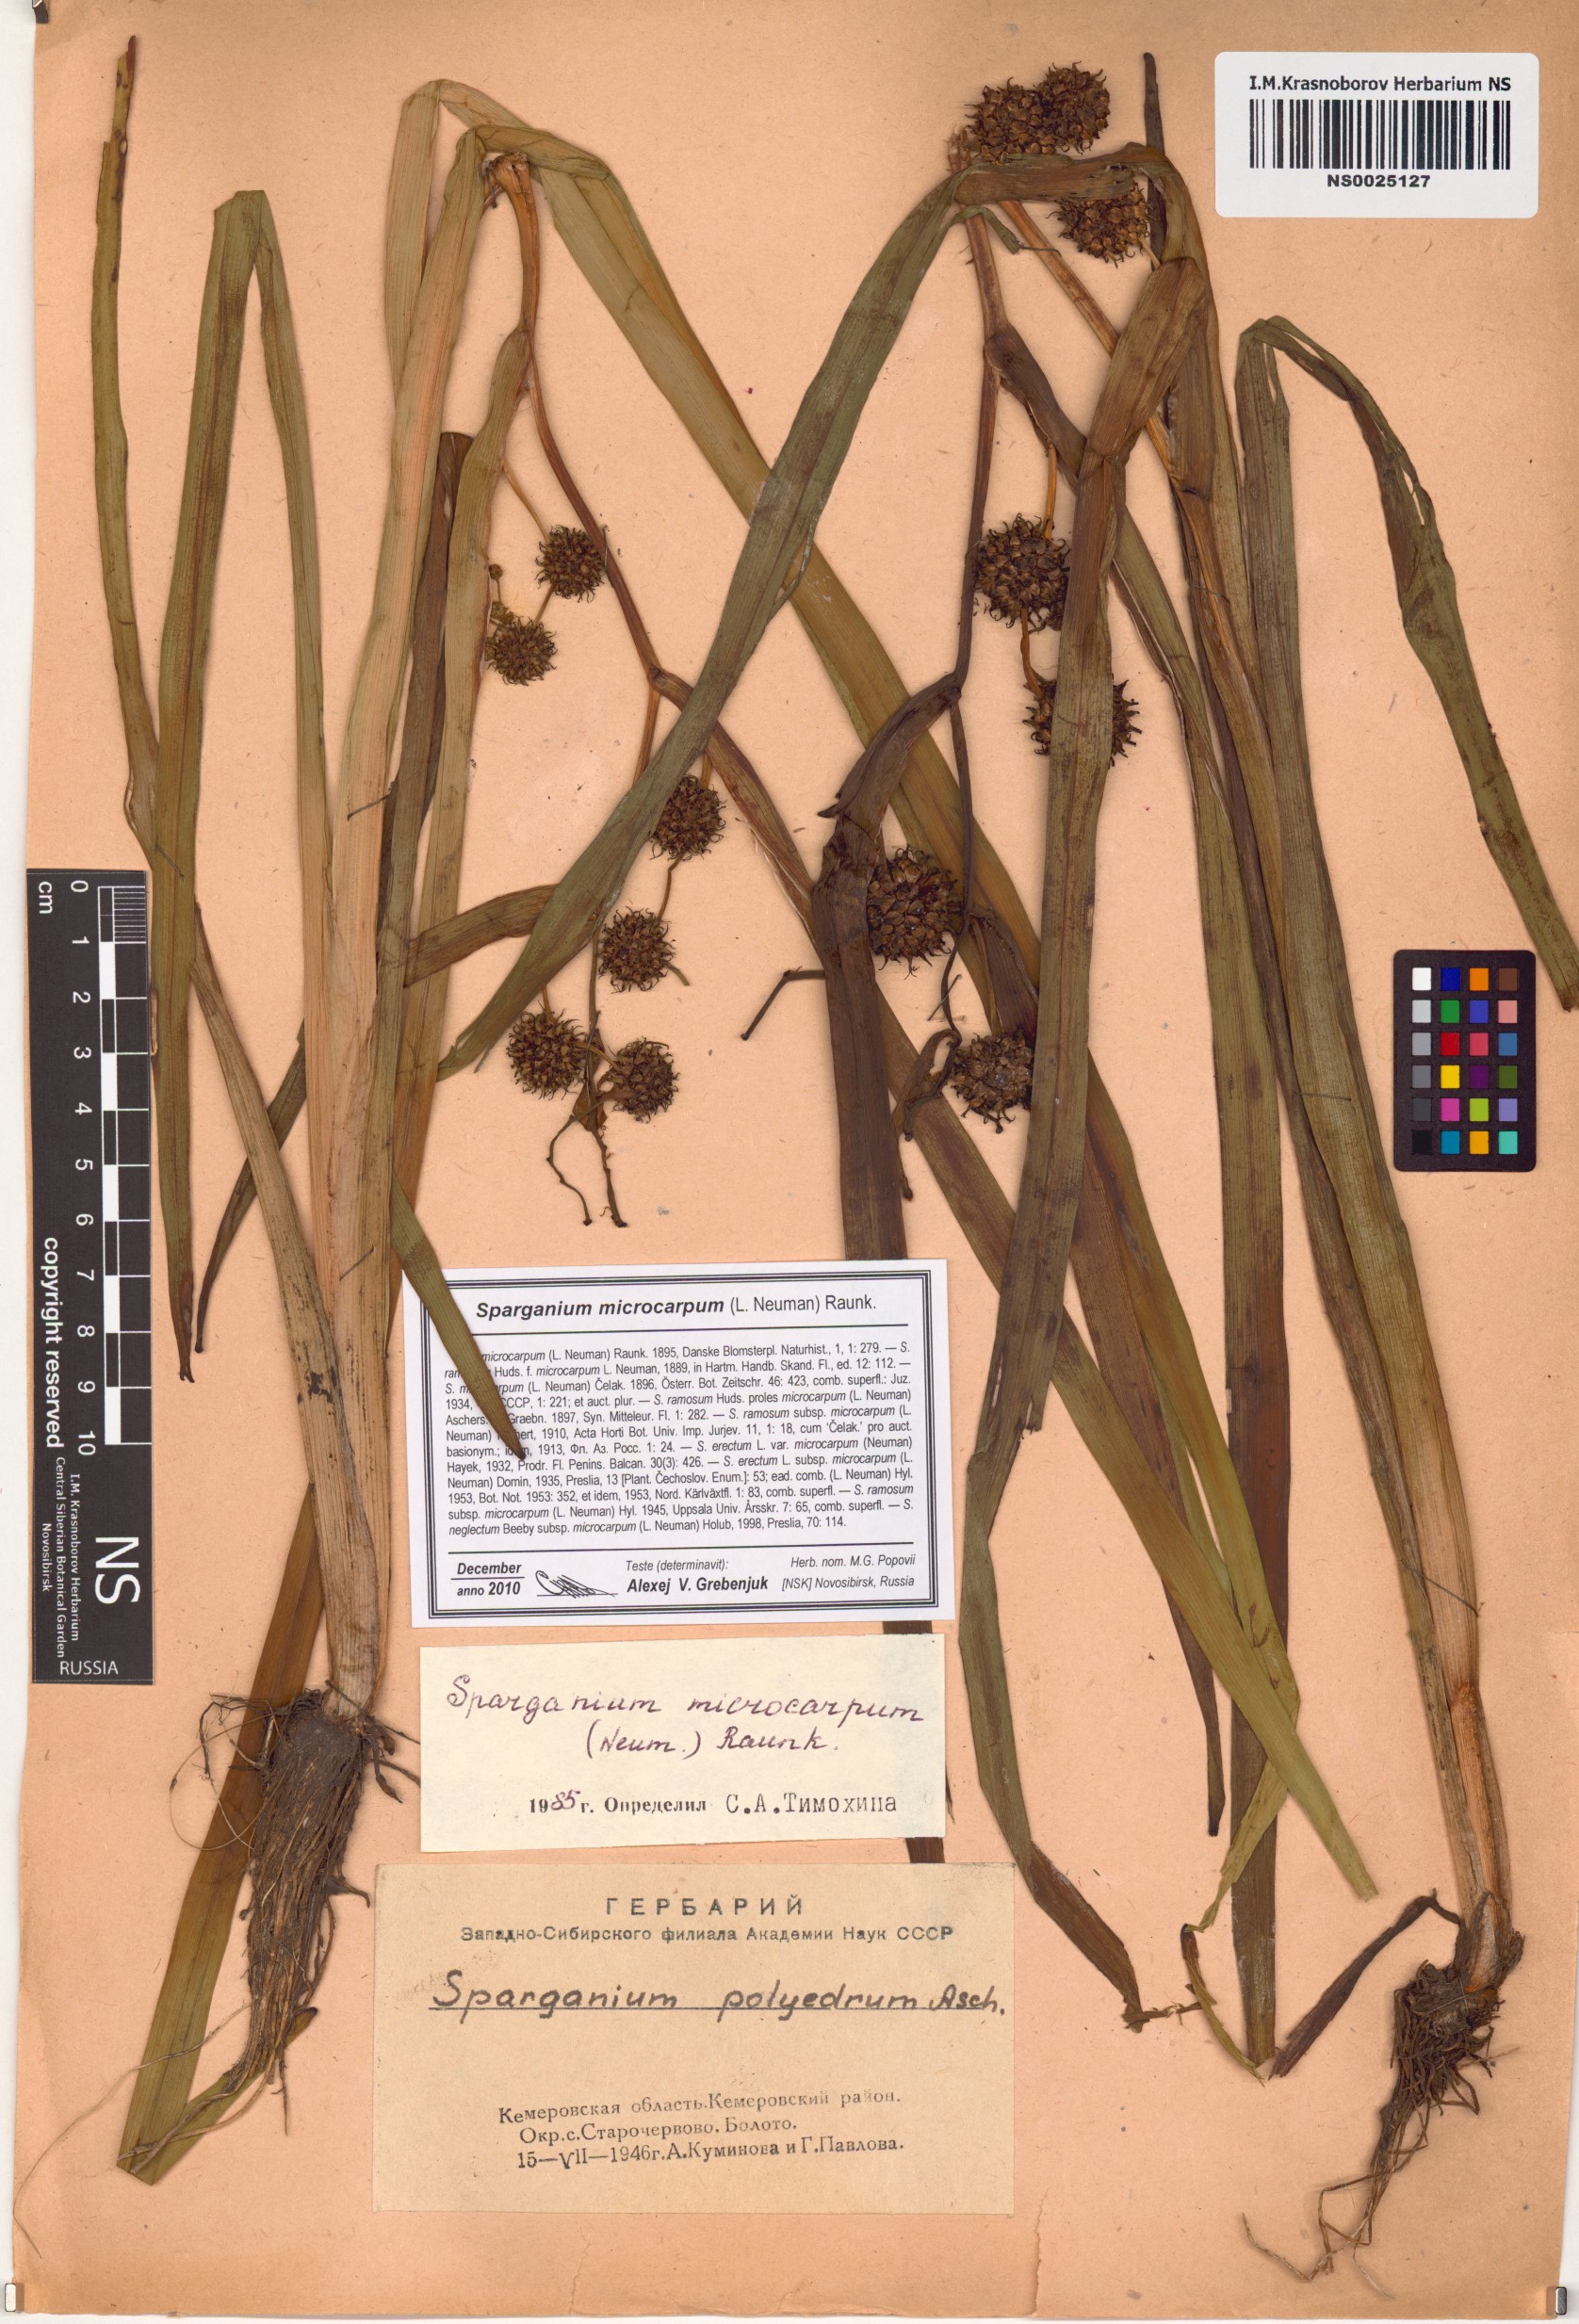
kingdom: Plantae
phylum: Tracheophyta
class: Liliopsida
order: Poales
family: Typhaceae
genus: Sparganium
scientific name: Sparganium erectum
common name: Branched bur-reed
